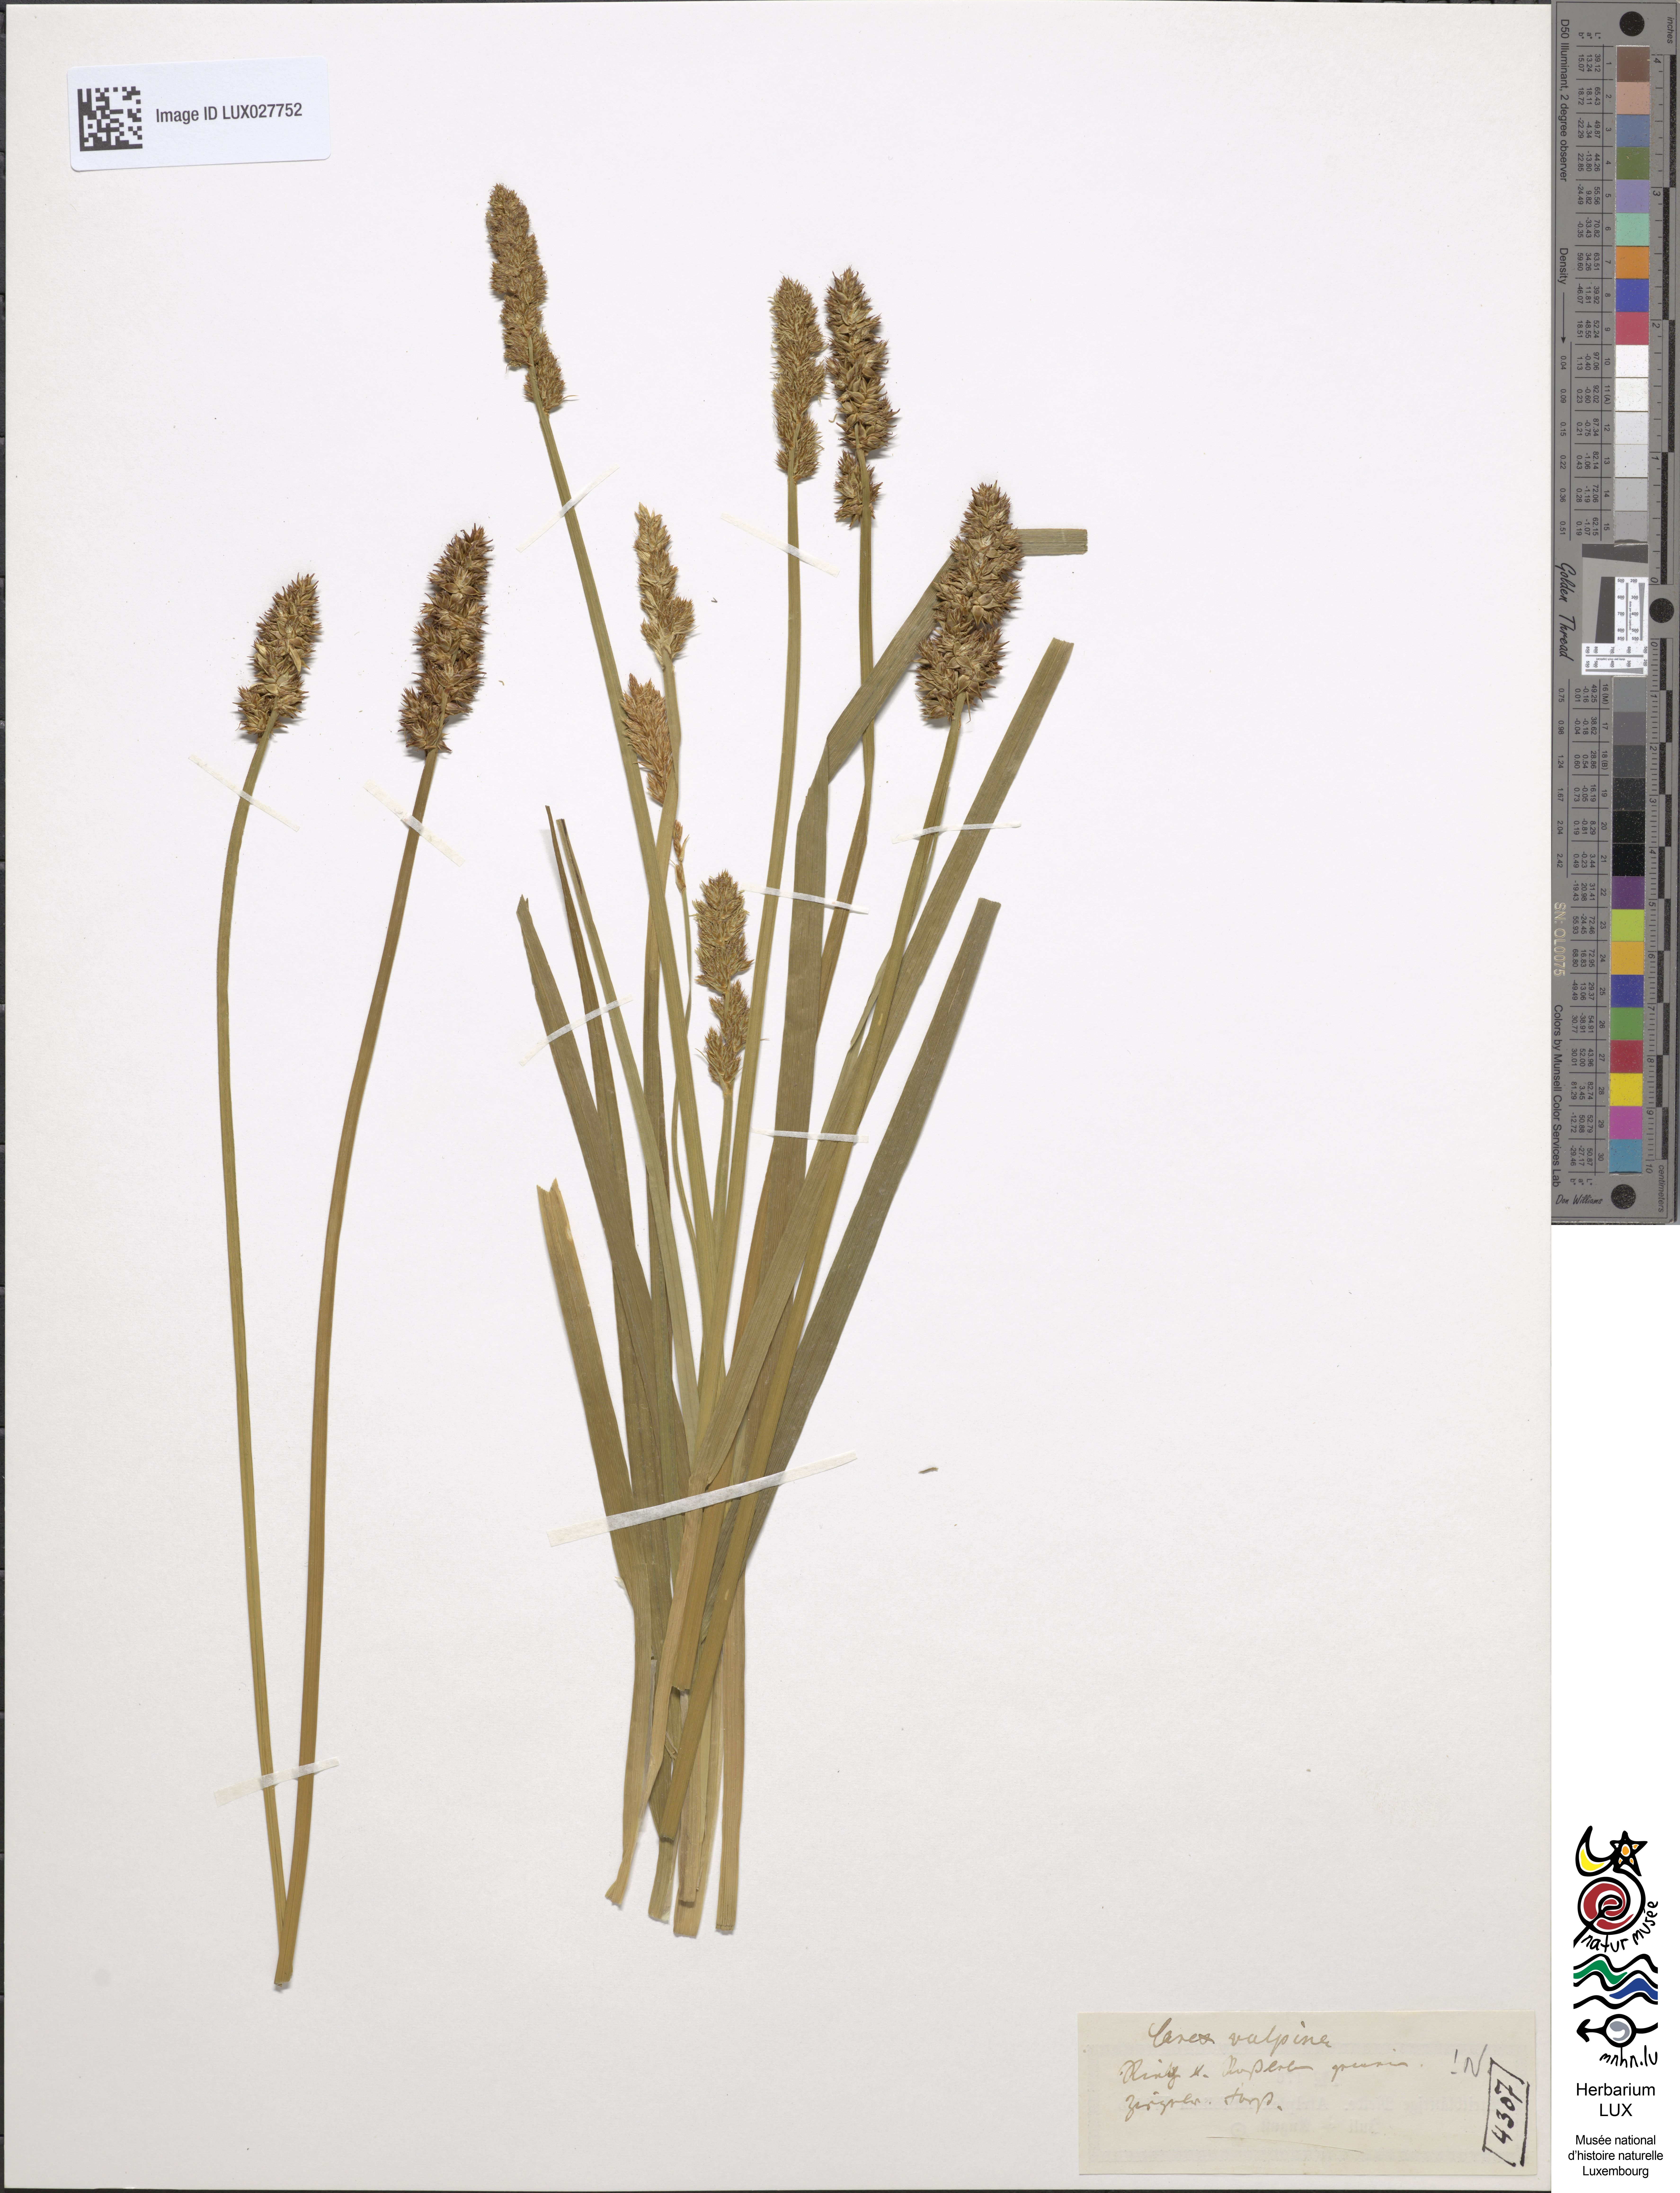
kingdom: Plantae
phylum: Tracheophyta
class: Liliopsida
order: Poales
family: Cyperaceae
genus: Carex
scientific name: Carex vulpina
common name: True fox-sedge
